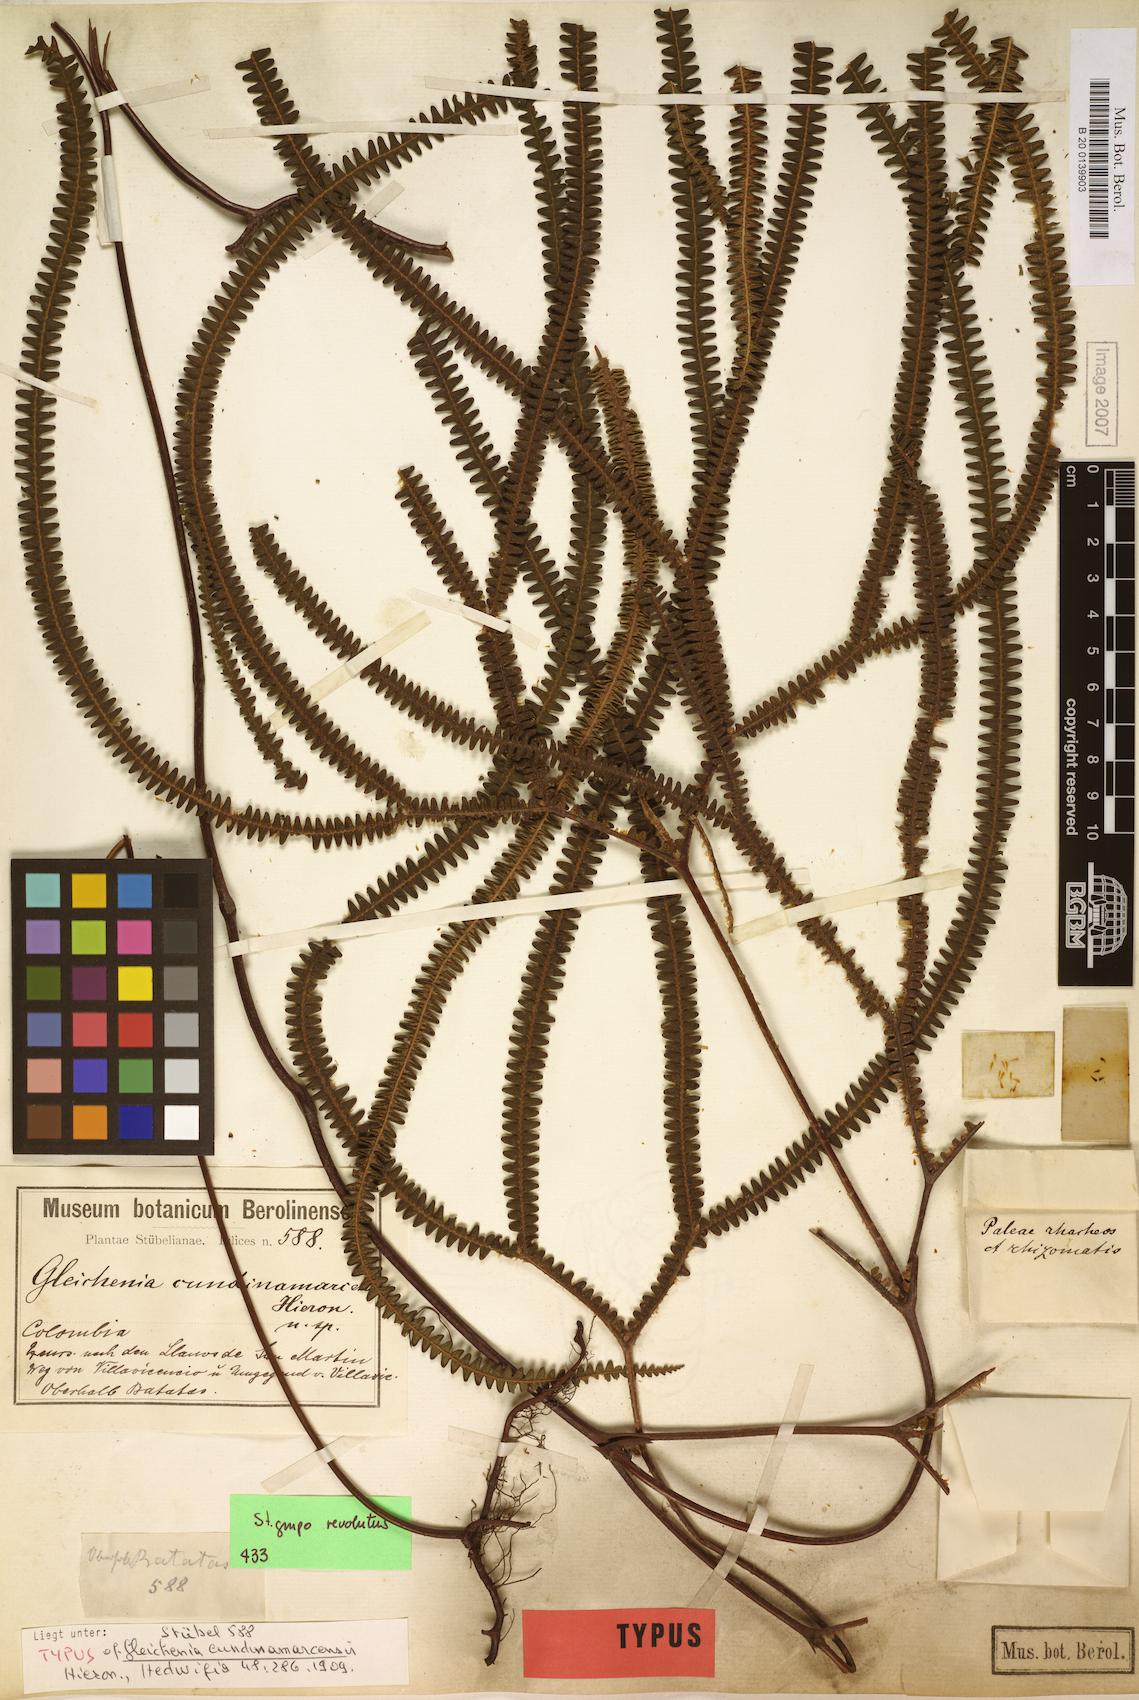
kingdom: Plantae
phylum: Tracheophyta
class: Polypodiopsida
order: Gleicheniales
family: Gleicheniaceae
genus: Sticherus
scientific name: Sticherus cundinamarcensis
